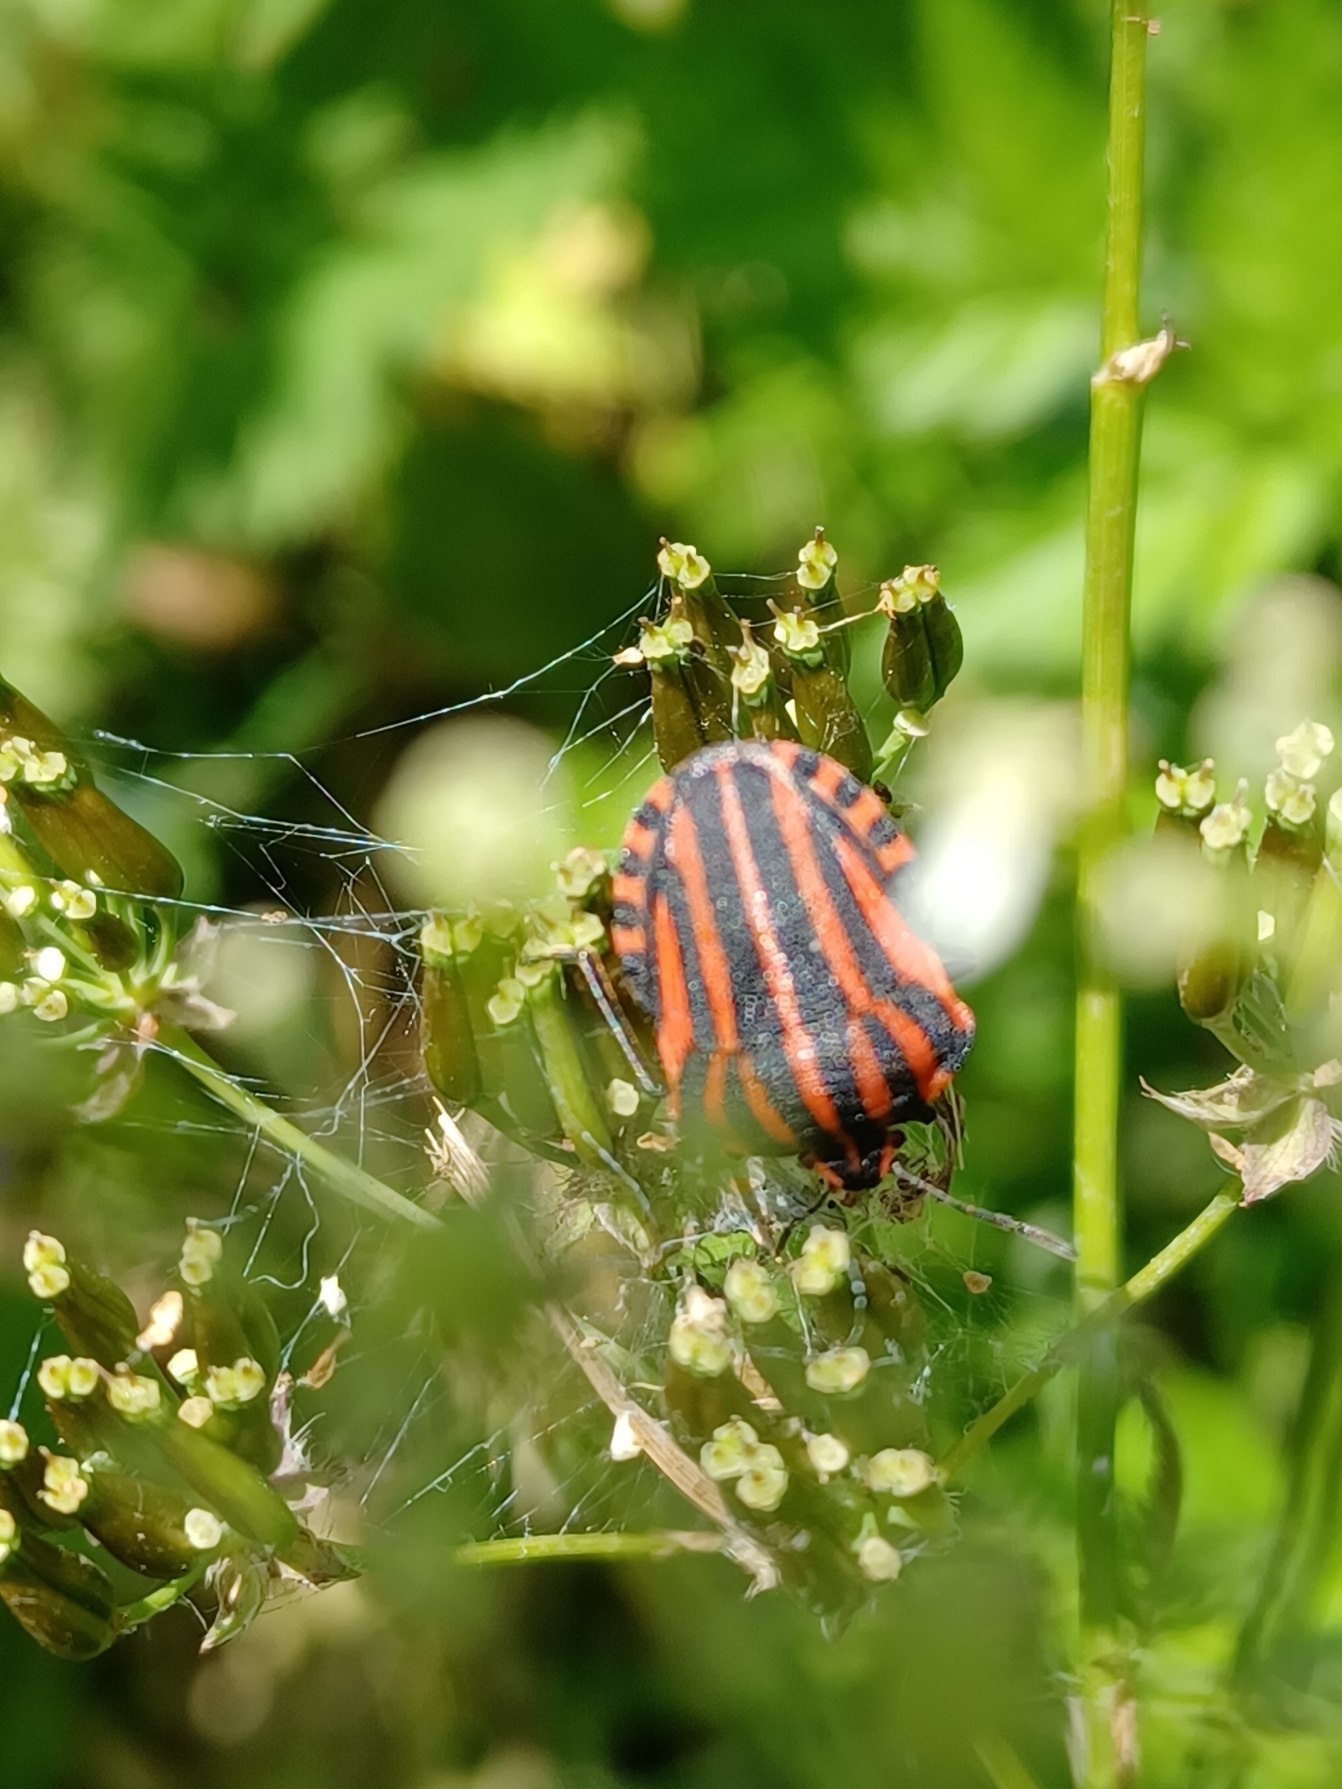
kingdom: Animalia
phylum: Arthropoda
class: Insecta
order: Hemiptera
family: Pentatomidae
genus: Graphosoma
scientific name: Graphosoma italicum
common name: Stribetæge
